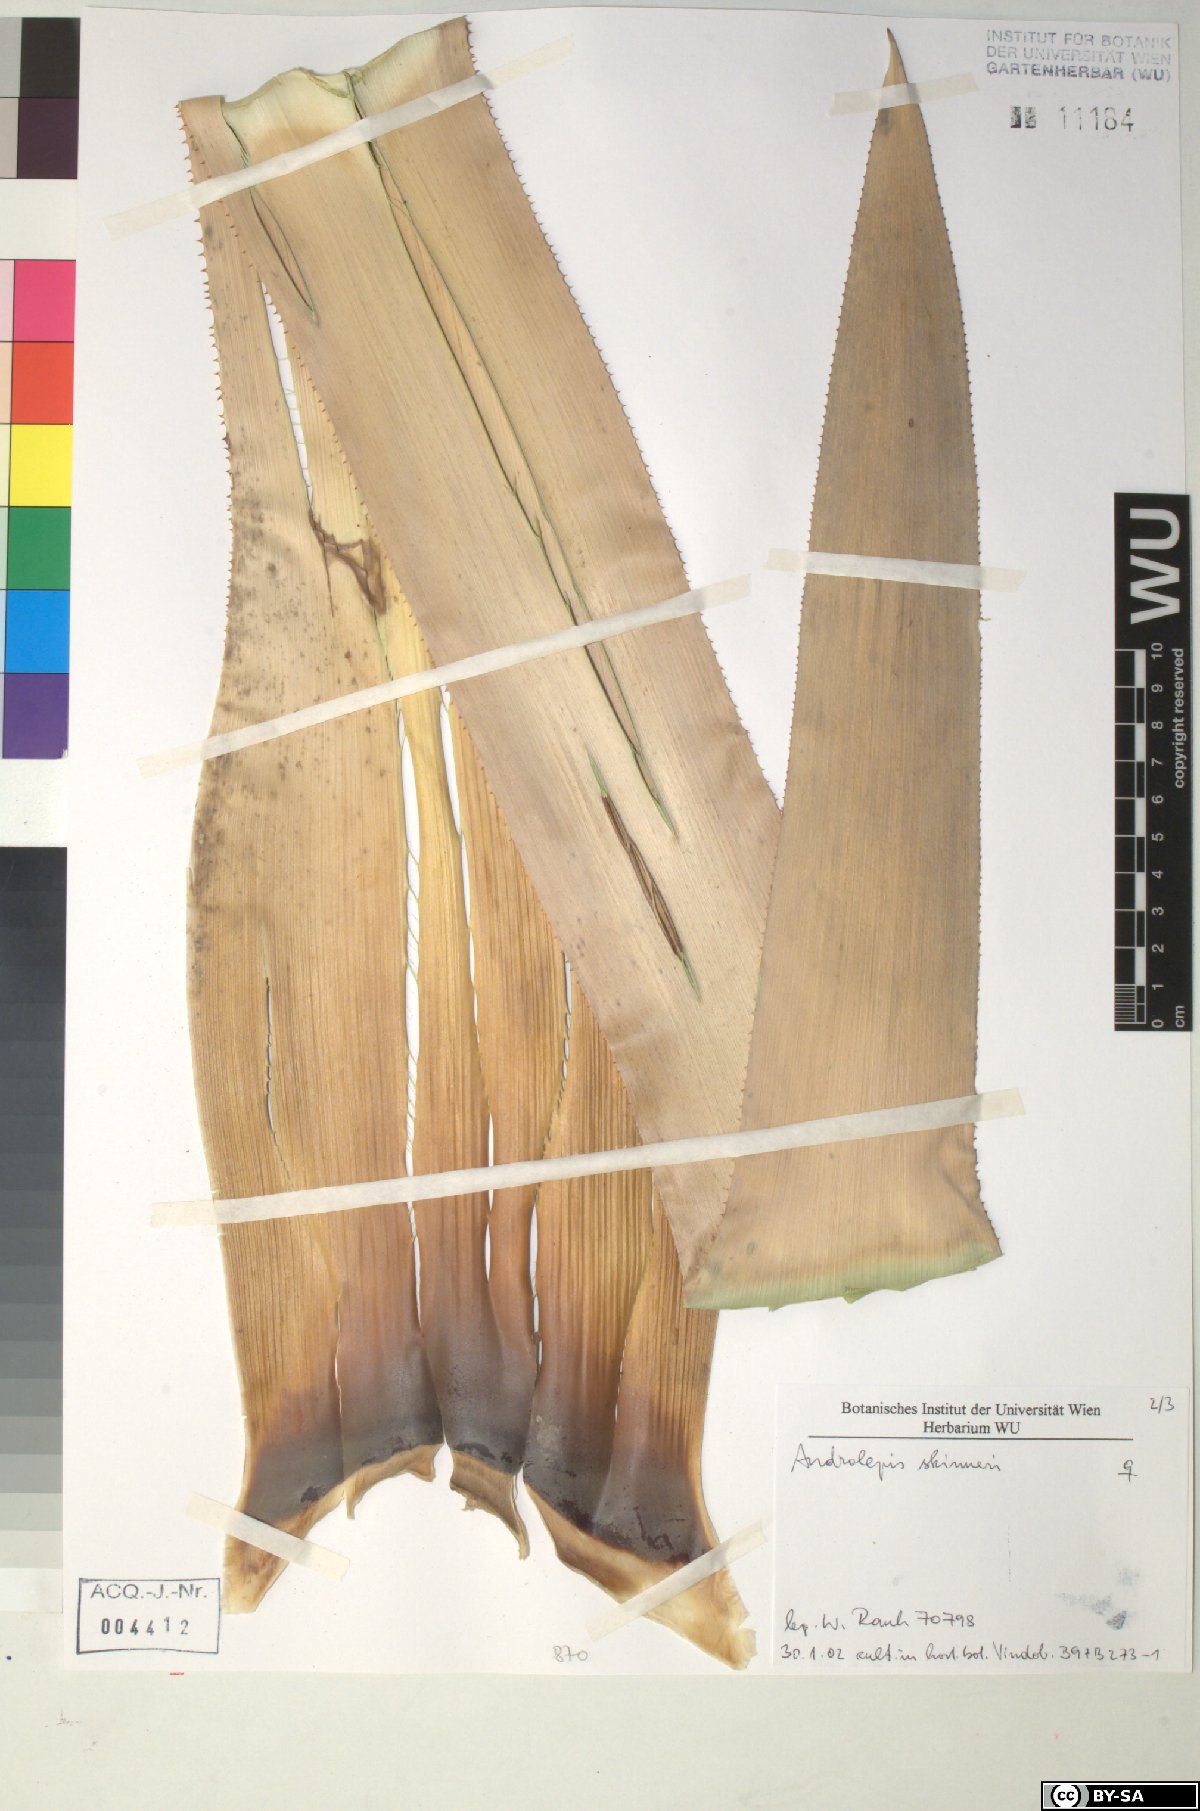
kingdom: Plantae
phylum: Tracheophyta
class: Liliopsida
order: Poales
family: Bromeliaceae
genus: Androlepis
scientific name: Androlepis skinneri
